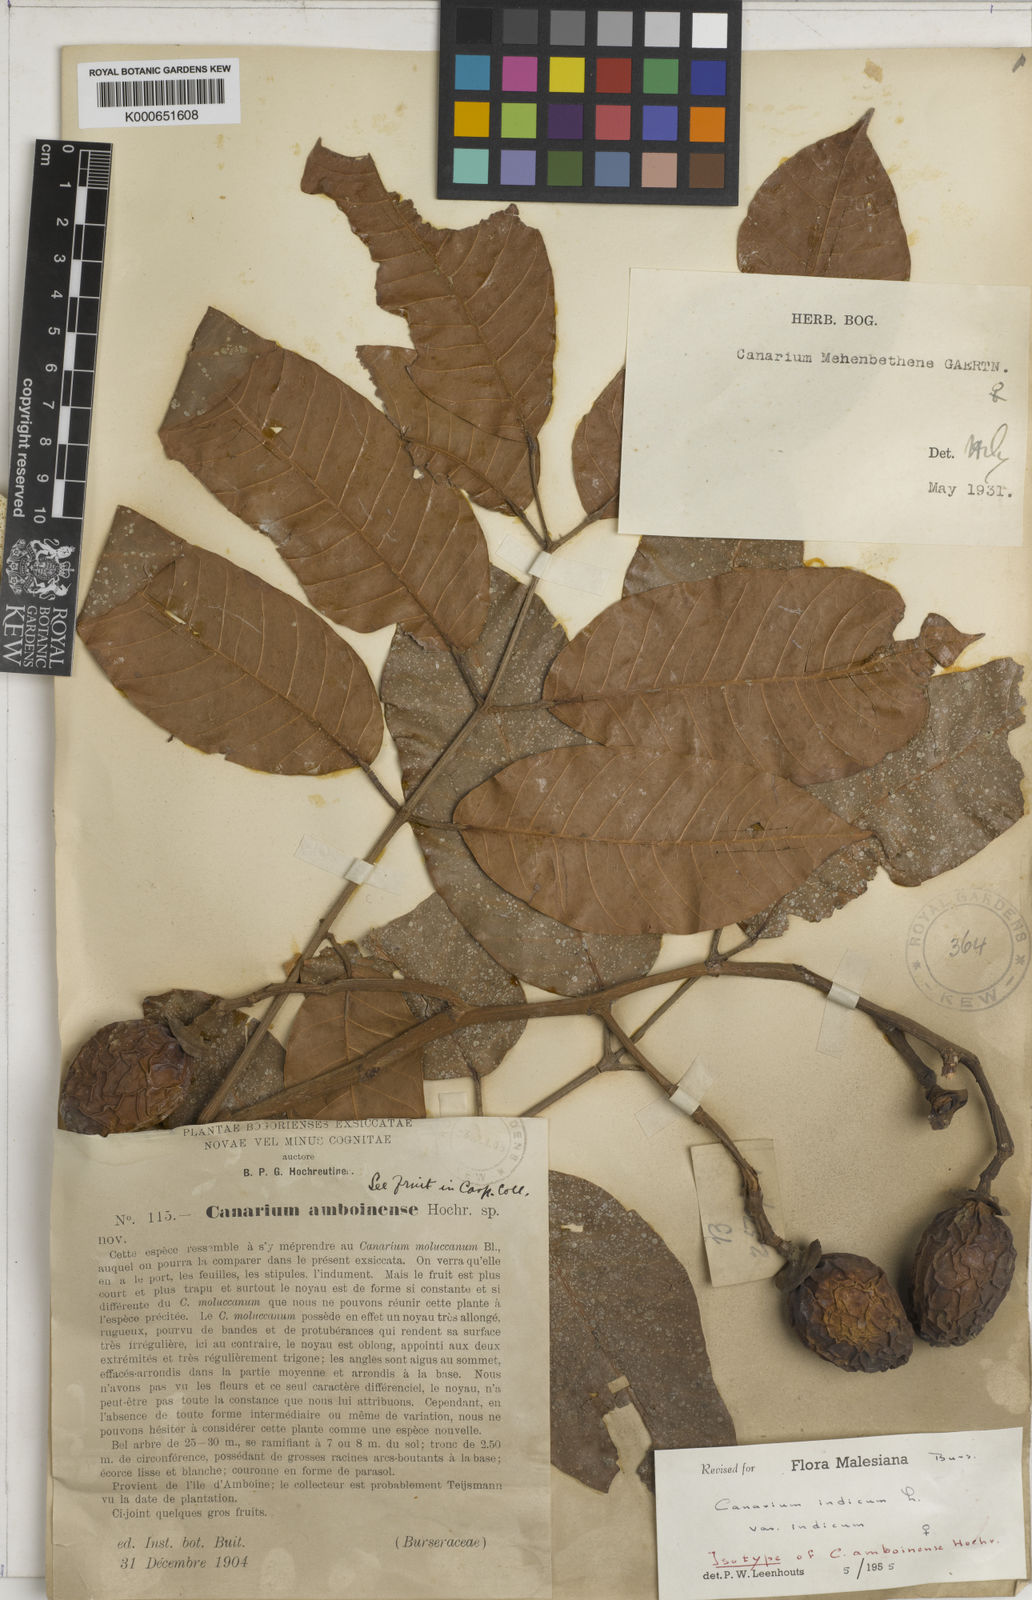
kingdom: Plantae
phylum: Tracheophyta
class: Magnoliopsida
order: Sapindales
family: Burseraceae
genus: Canarium
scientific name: Canarium indicum
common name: Canarium-nut
